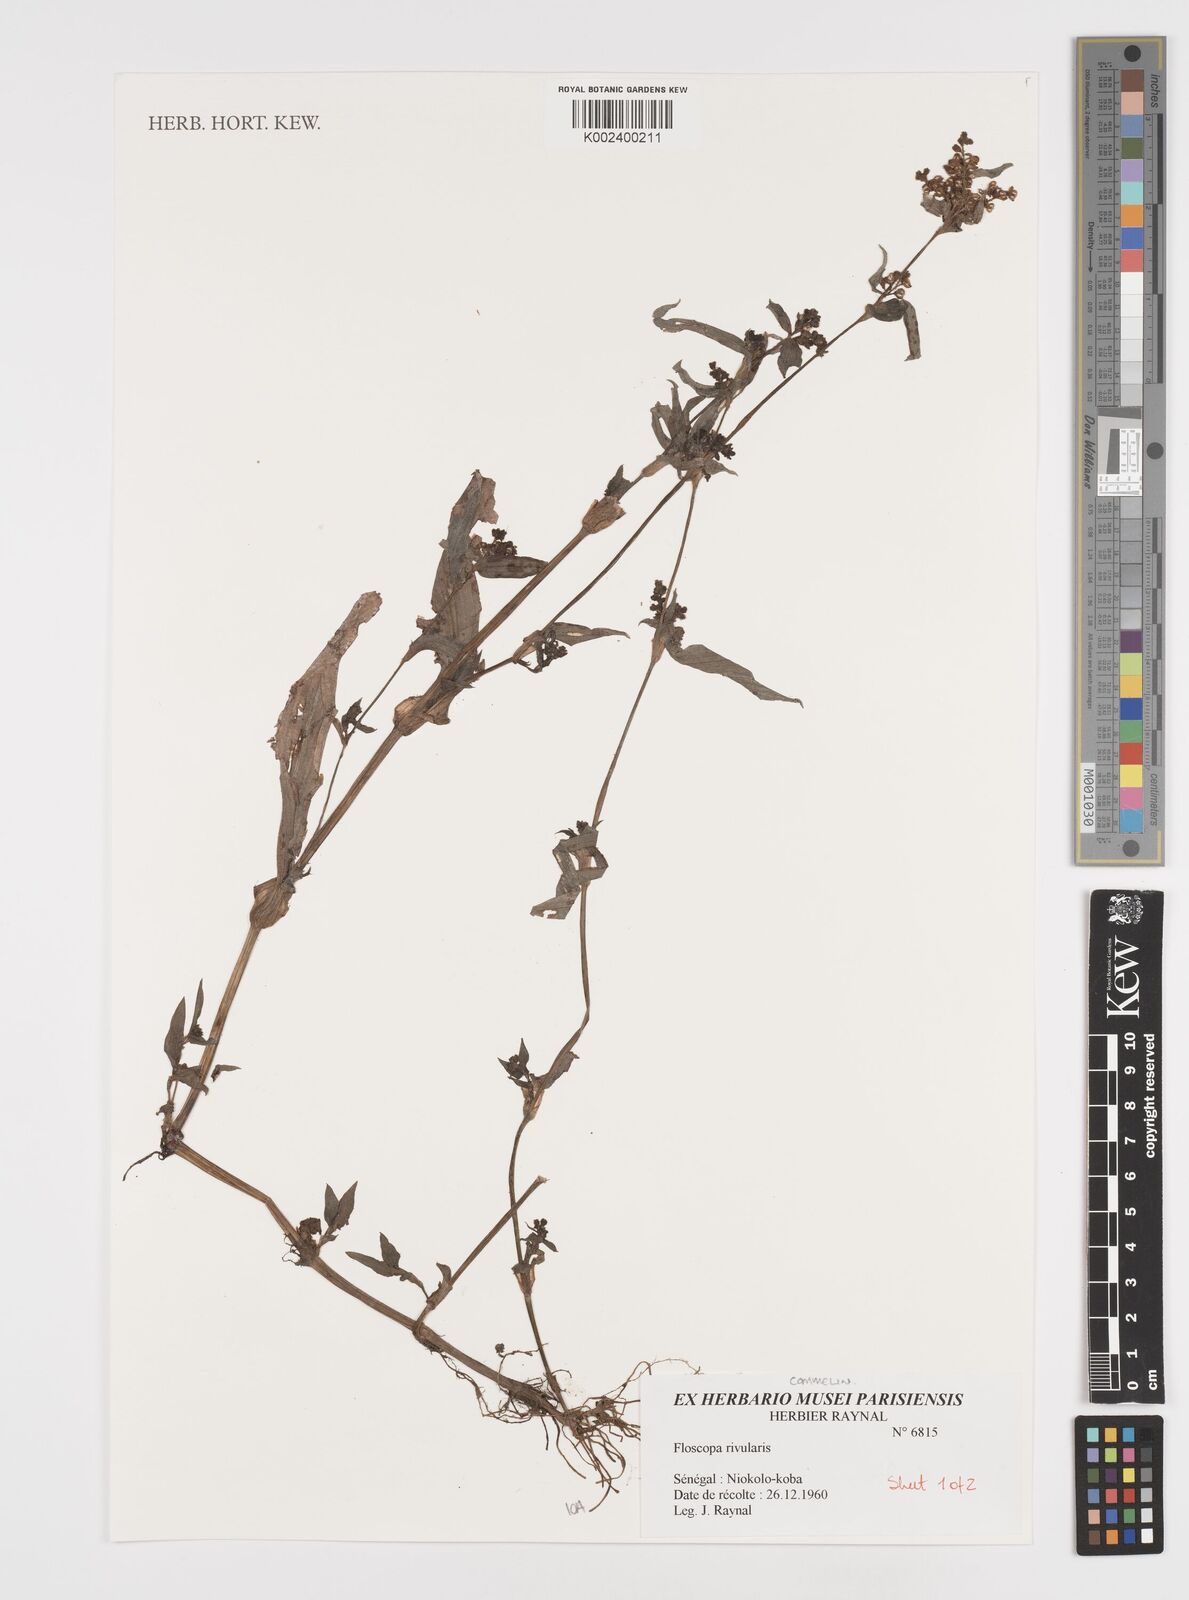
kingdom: Plantae
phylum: Tracheophyta
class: Liliopsida
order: Commelinales
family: Commelinaceae
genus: Floscopa
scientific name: Floscopa glomerata
